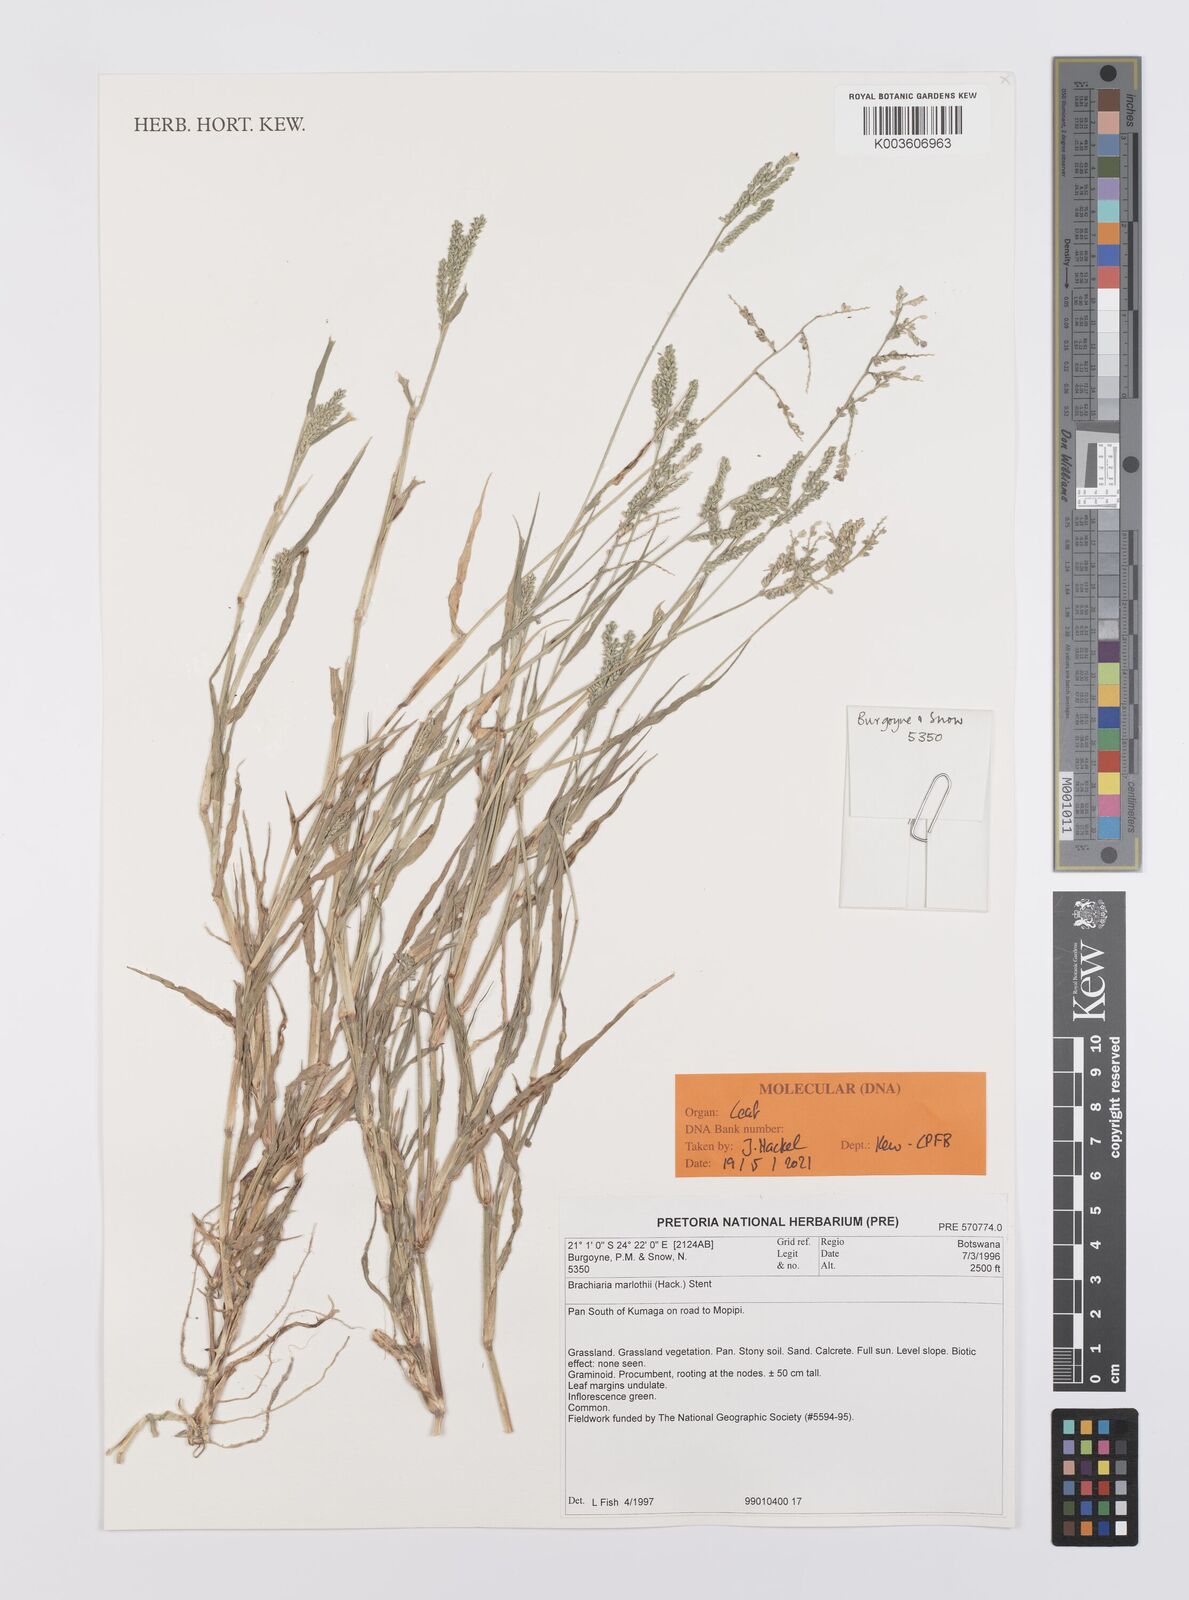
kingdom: Plantae
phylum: Tracheophyta
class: Liliopsida
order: Poales
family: Poaceae
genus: Urochloa
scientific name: Urochloa Brachiaria marlothii
